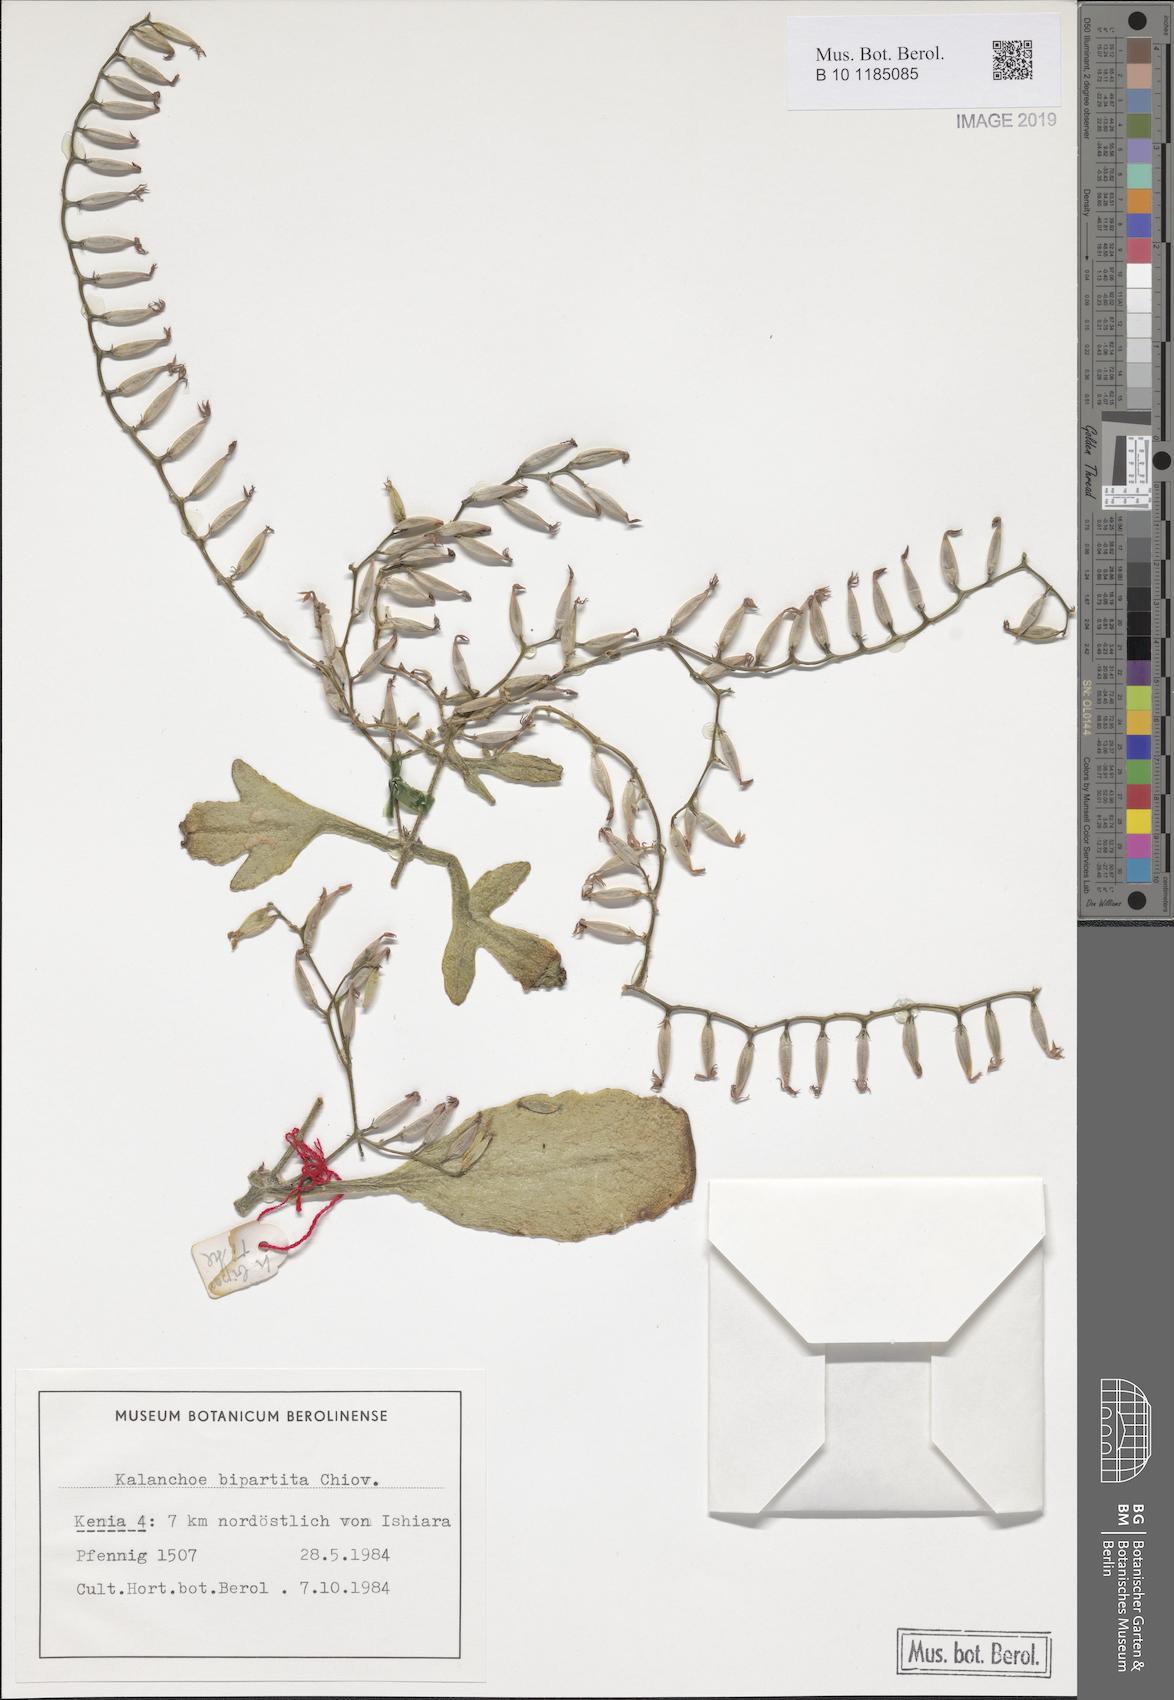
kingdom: Plantae
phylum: Tracheophyta
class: Magnoliopsida
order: Saxifragales
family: Crassulaceae
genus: Kalanchoe
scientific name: Kalanchoe bipartita
